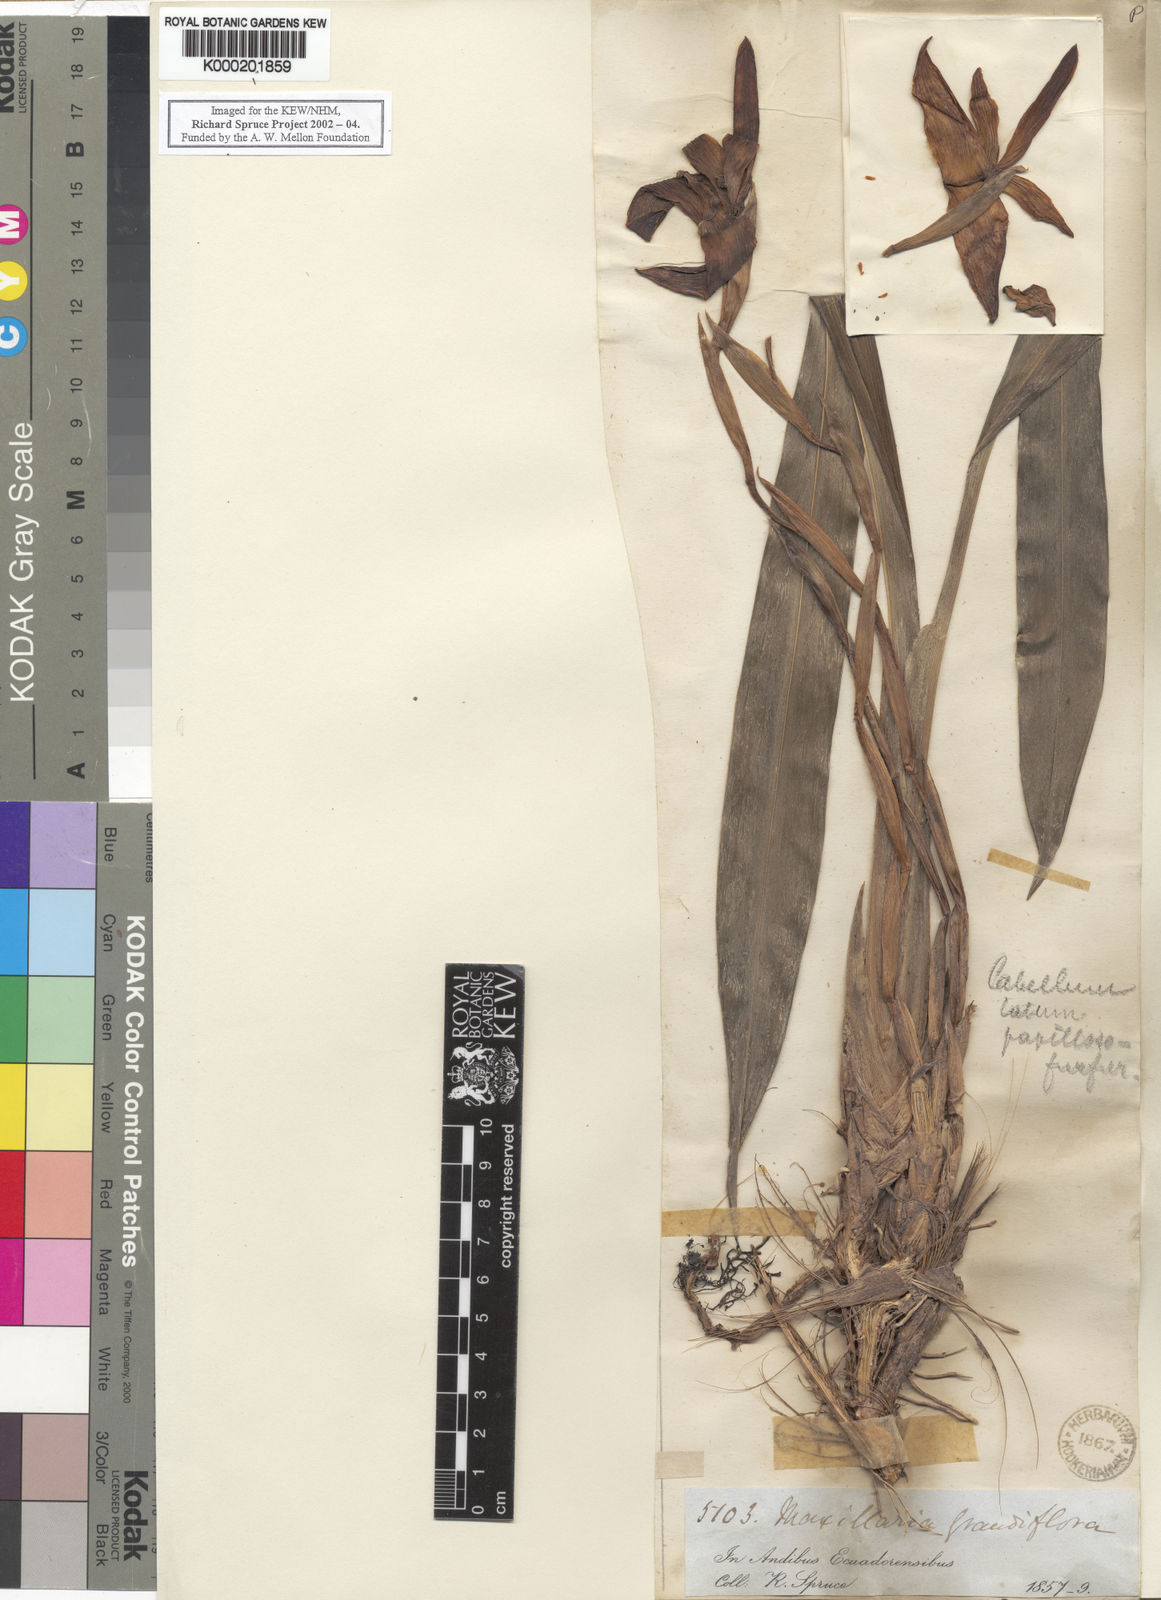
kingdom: Plantae
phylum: Tracheophyta
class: Liliopsida
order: Asparagales
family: Orchidaceae
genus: Maxillaria
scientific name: Maxillaria grandiflora
